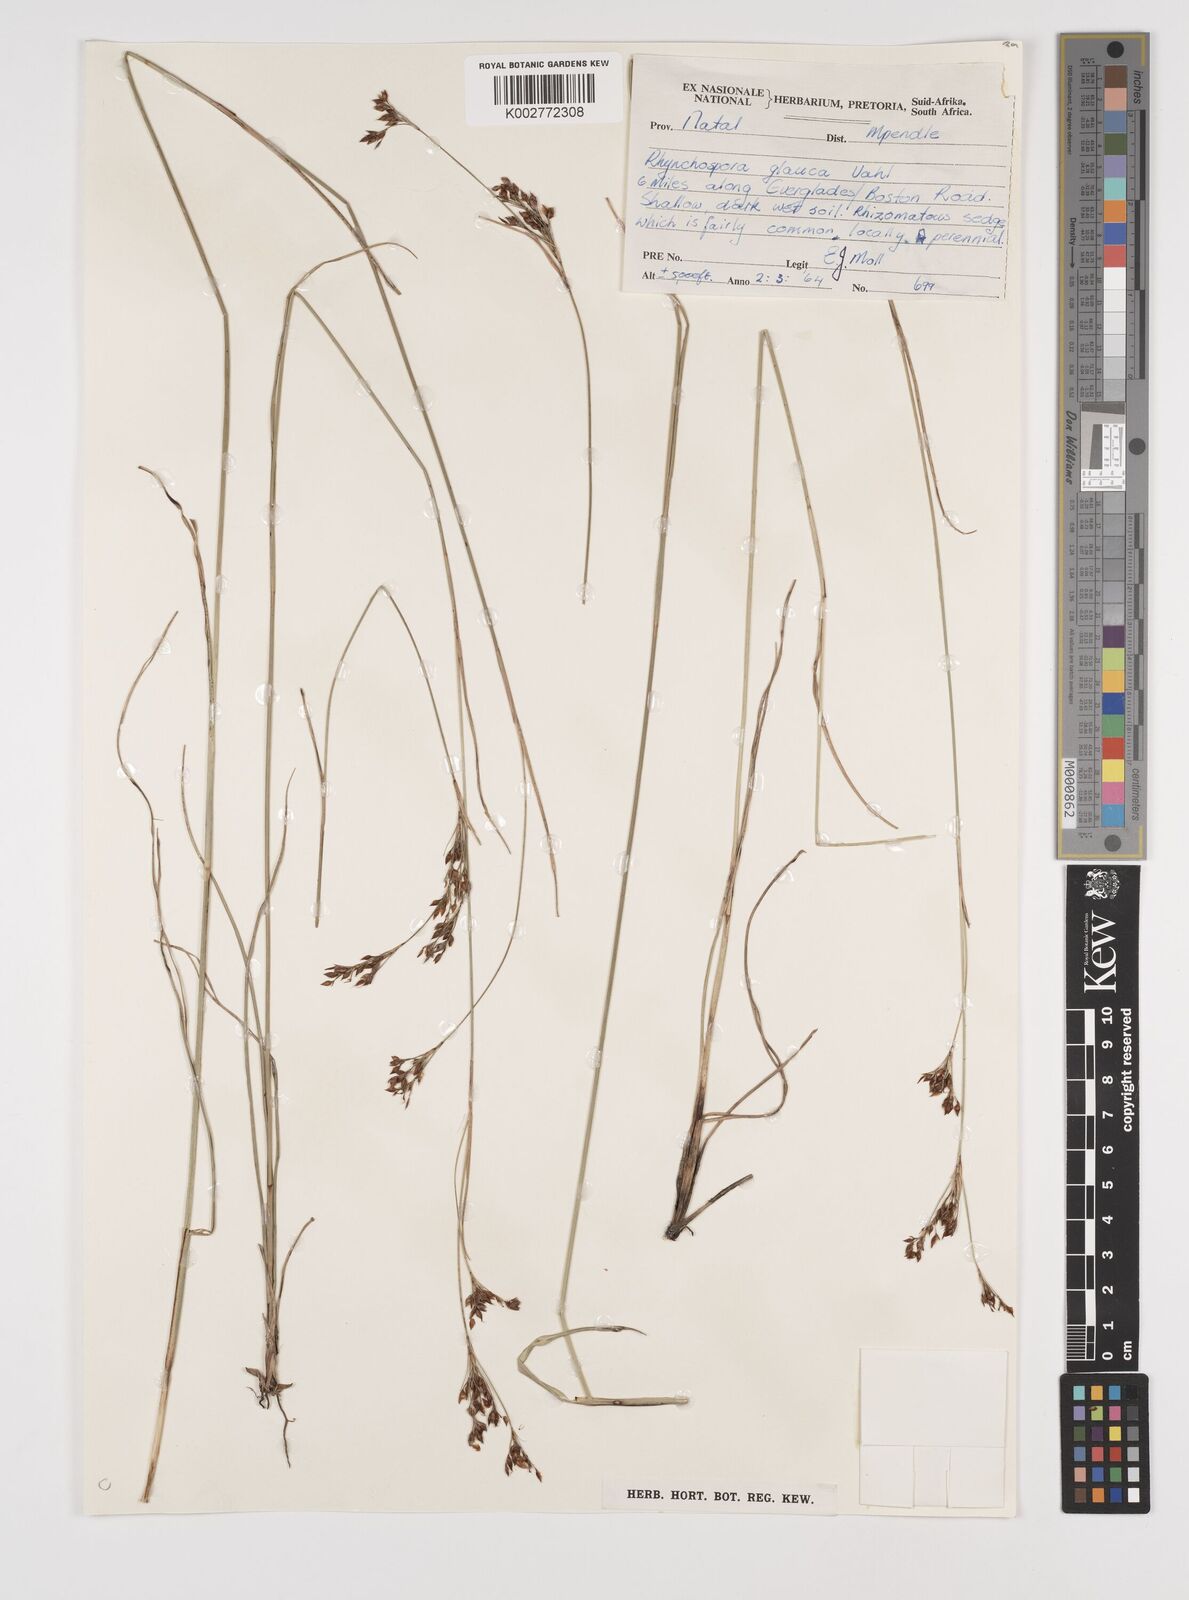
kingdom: Plantae
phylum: Tracheophyta
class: Liliopsida
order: Poales
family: Cyperaceae
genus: Rhynchospora
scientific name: Rhynchospora rugosa
